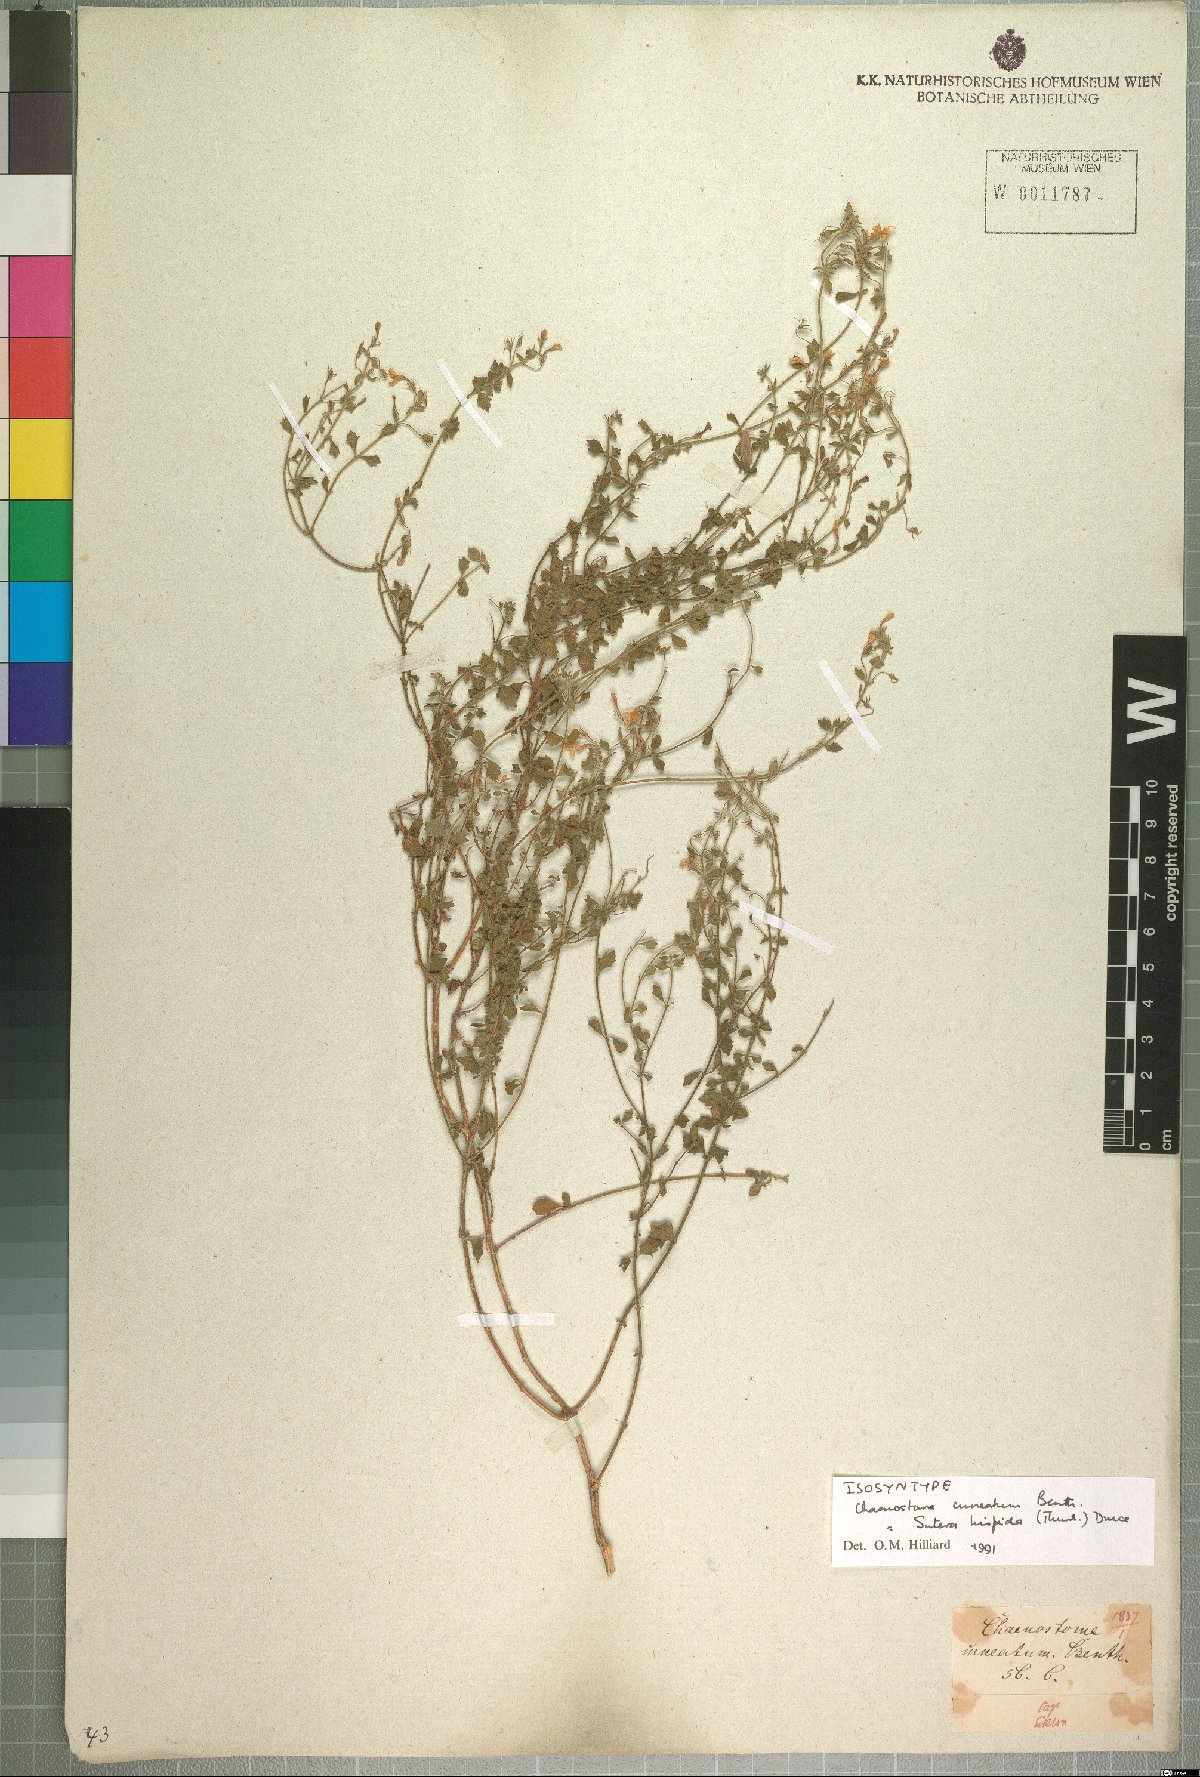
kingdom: Plantae
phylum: Tracheophyta
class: Magnoliopsida
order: Lamiales
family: Scrophulariaceae
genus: Chaenostoma
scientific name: Chaenostoma hispidum
